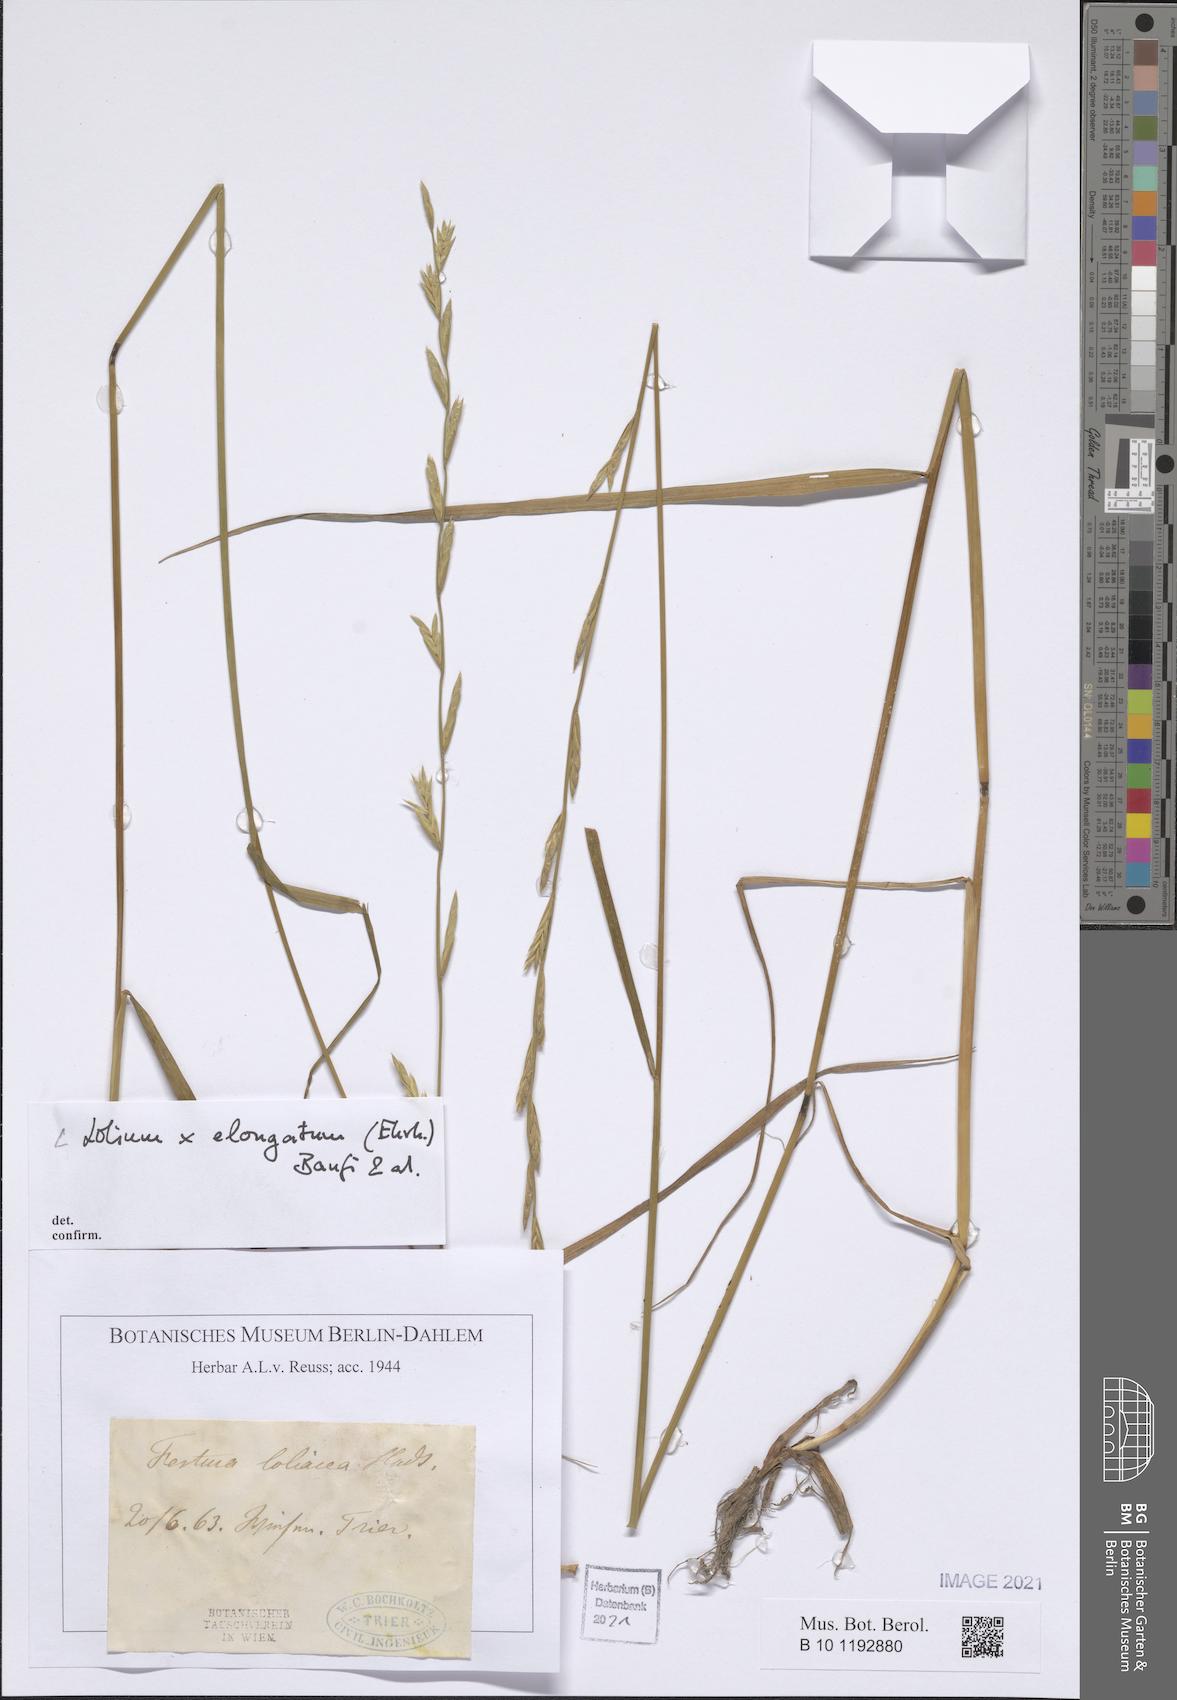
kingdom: Plantae
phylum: Tracheophyta
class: Liliopsida
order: Poales
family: Poaceae
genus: Lolium
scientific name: Lolium elongatum
